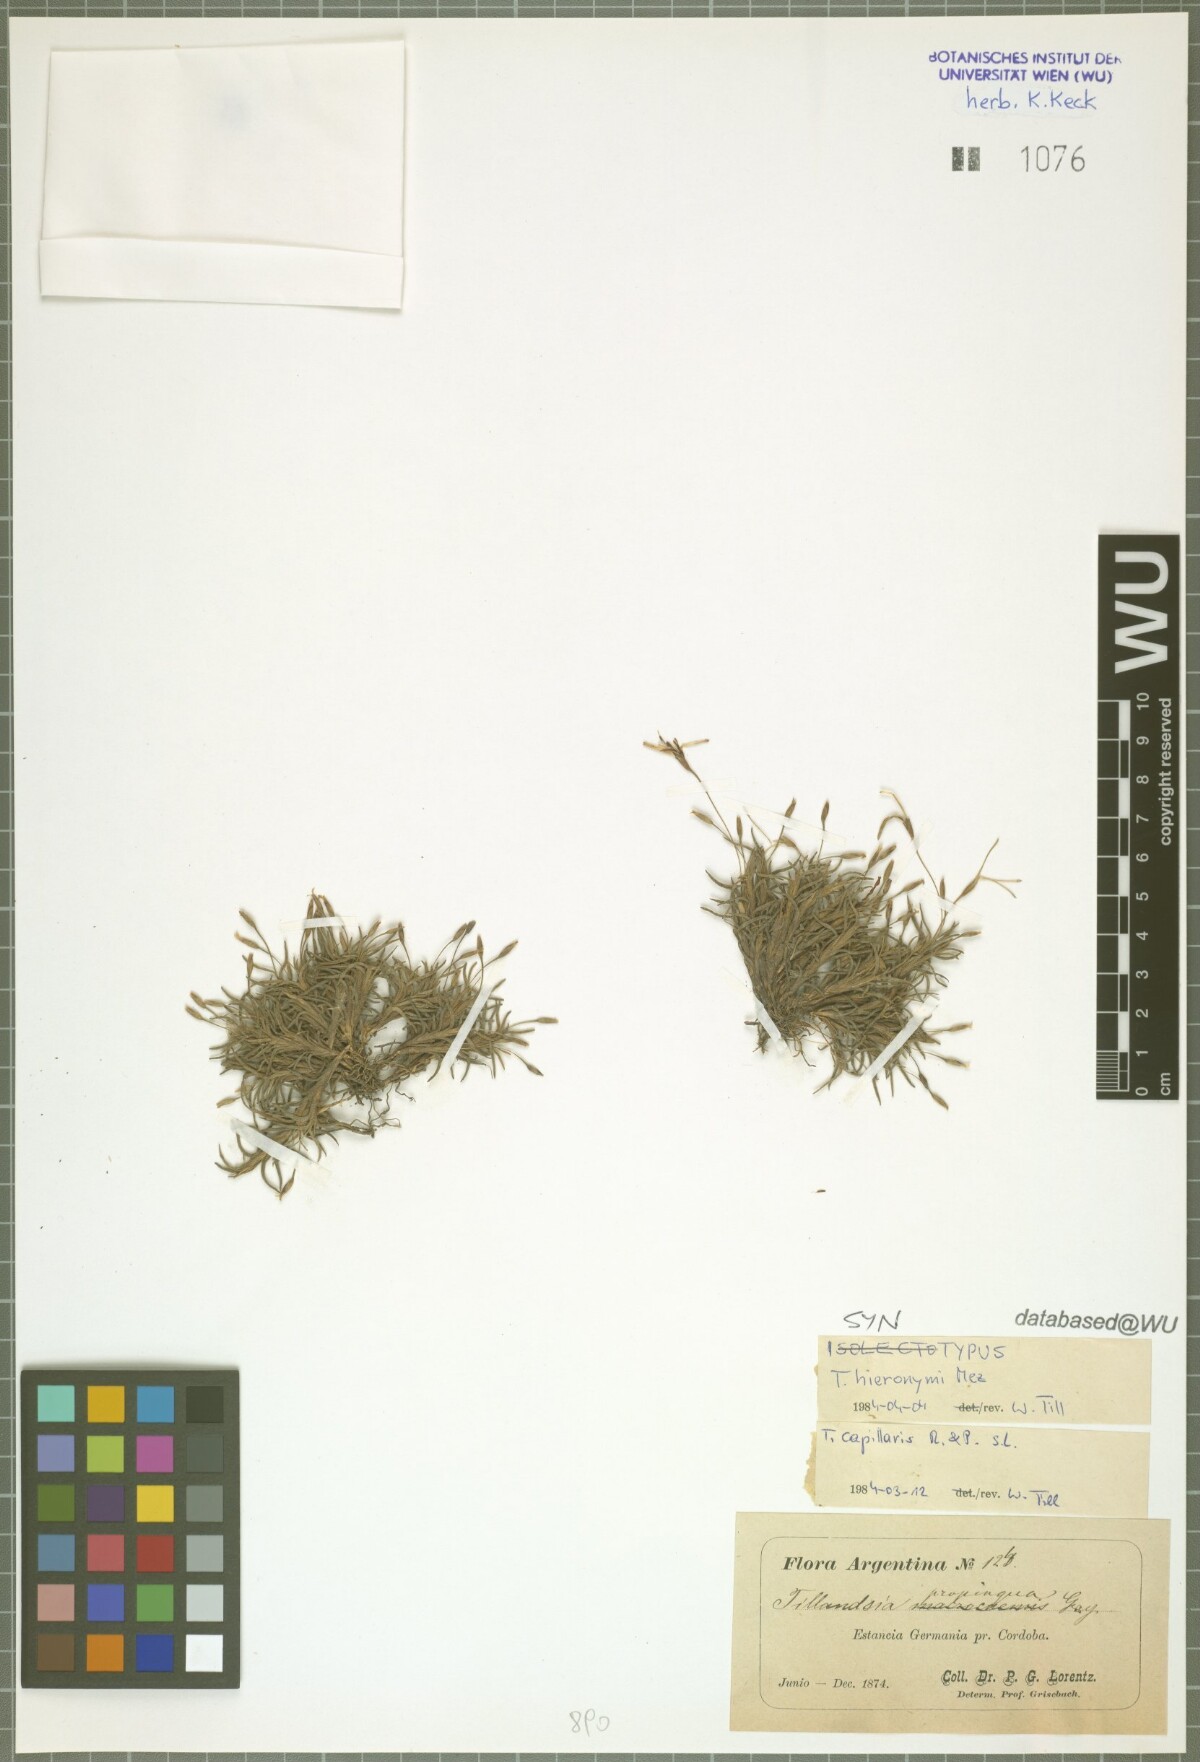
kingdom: Plantae
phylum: Tracheophyta
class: Liliopsida
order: Poales
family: Bromeliaceae
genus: Tillandsia
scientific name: Tillandsia capillaris
